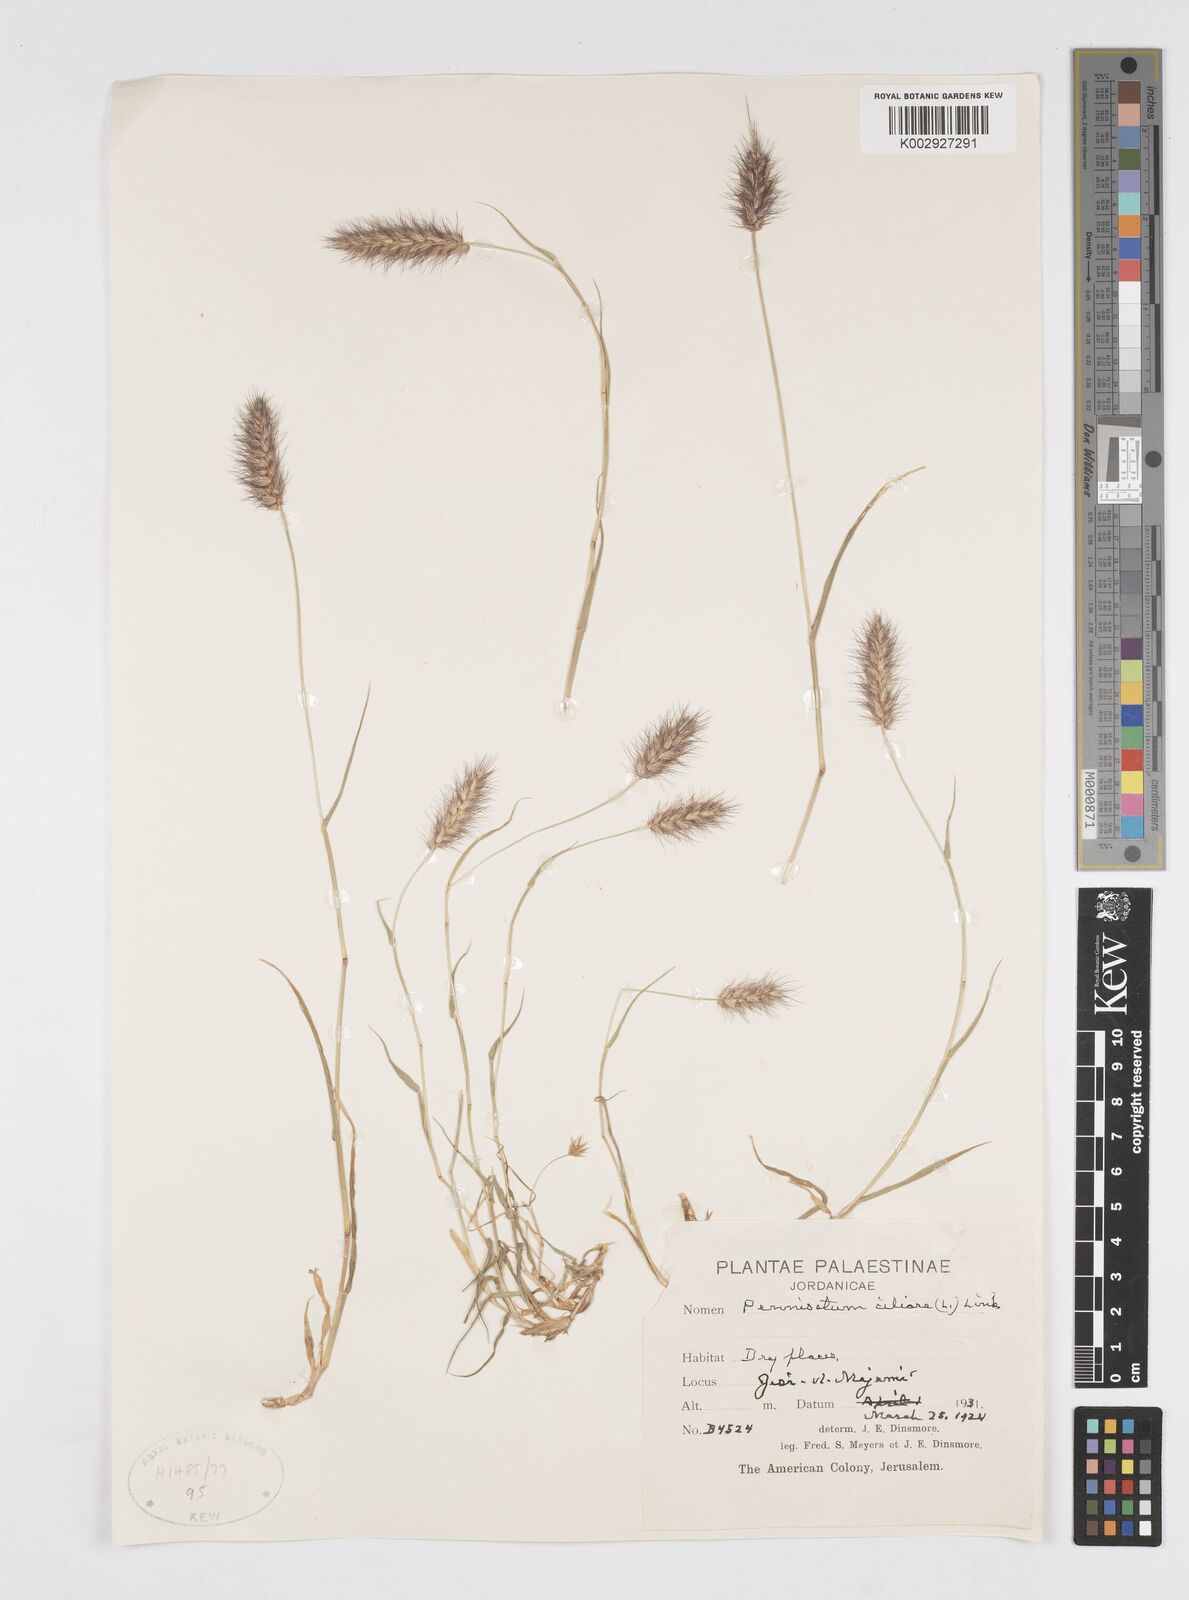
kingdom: Plantae
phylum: Tracheophyta
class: Liliopsida
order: Poales
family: Poaceae
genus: Cenchrus
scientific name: Cenchrus ciliaris
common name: Buffelgrass
